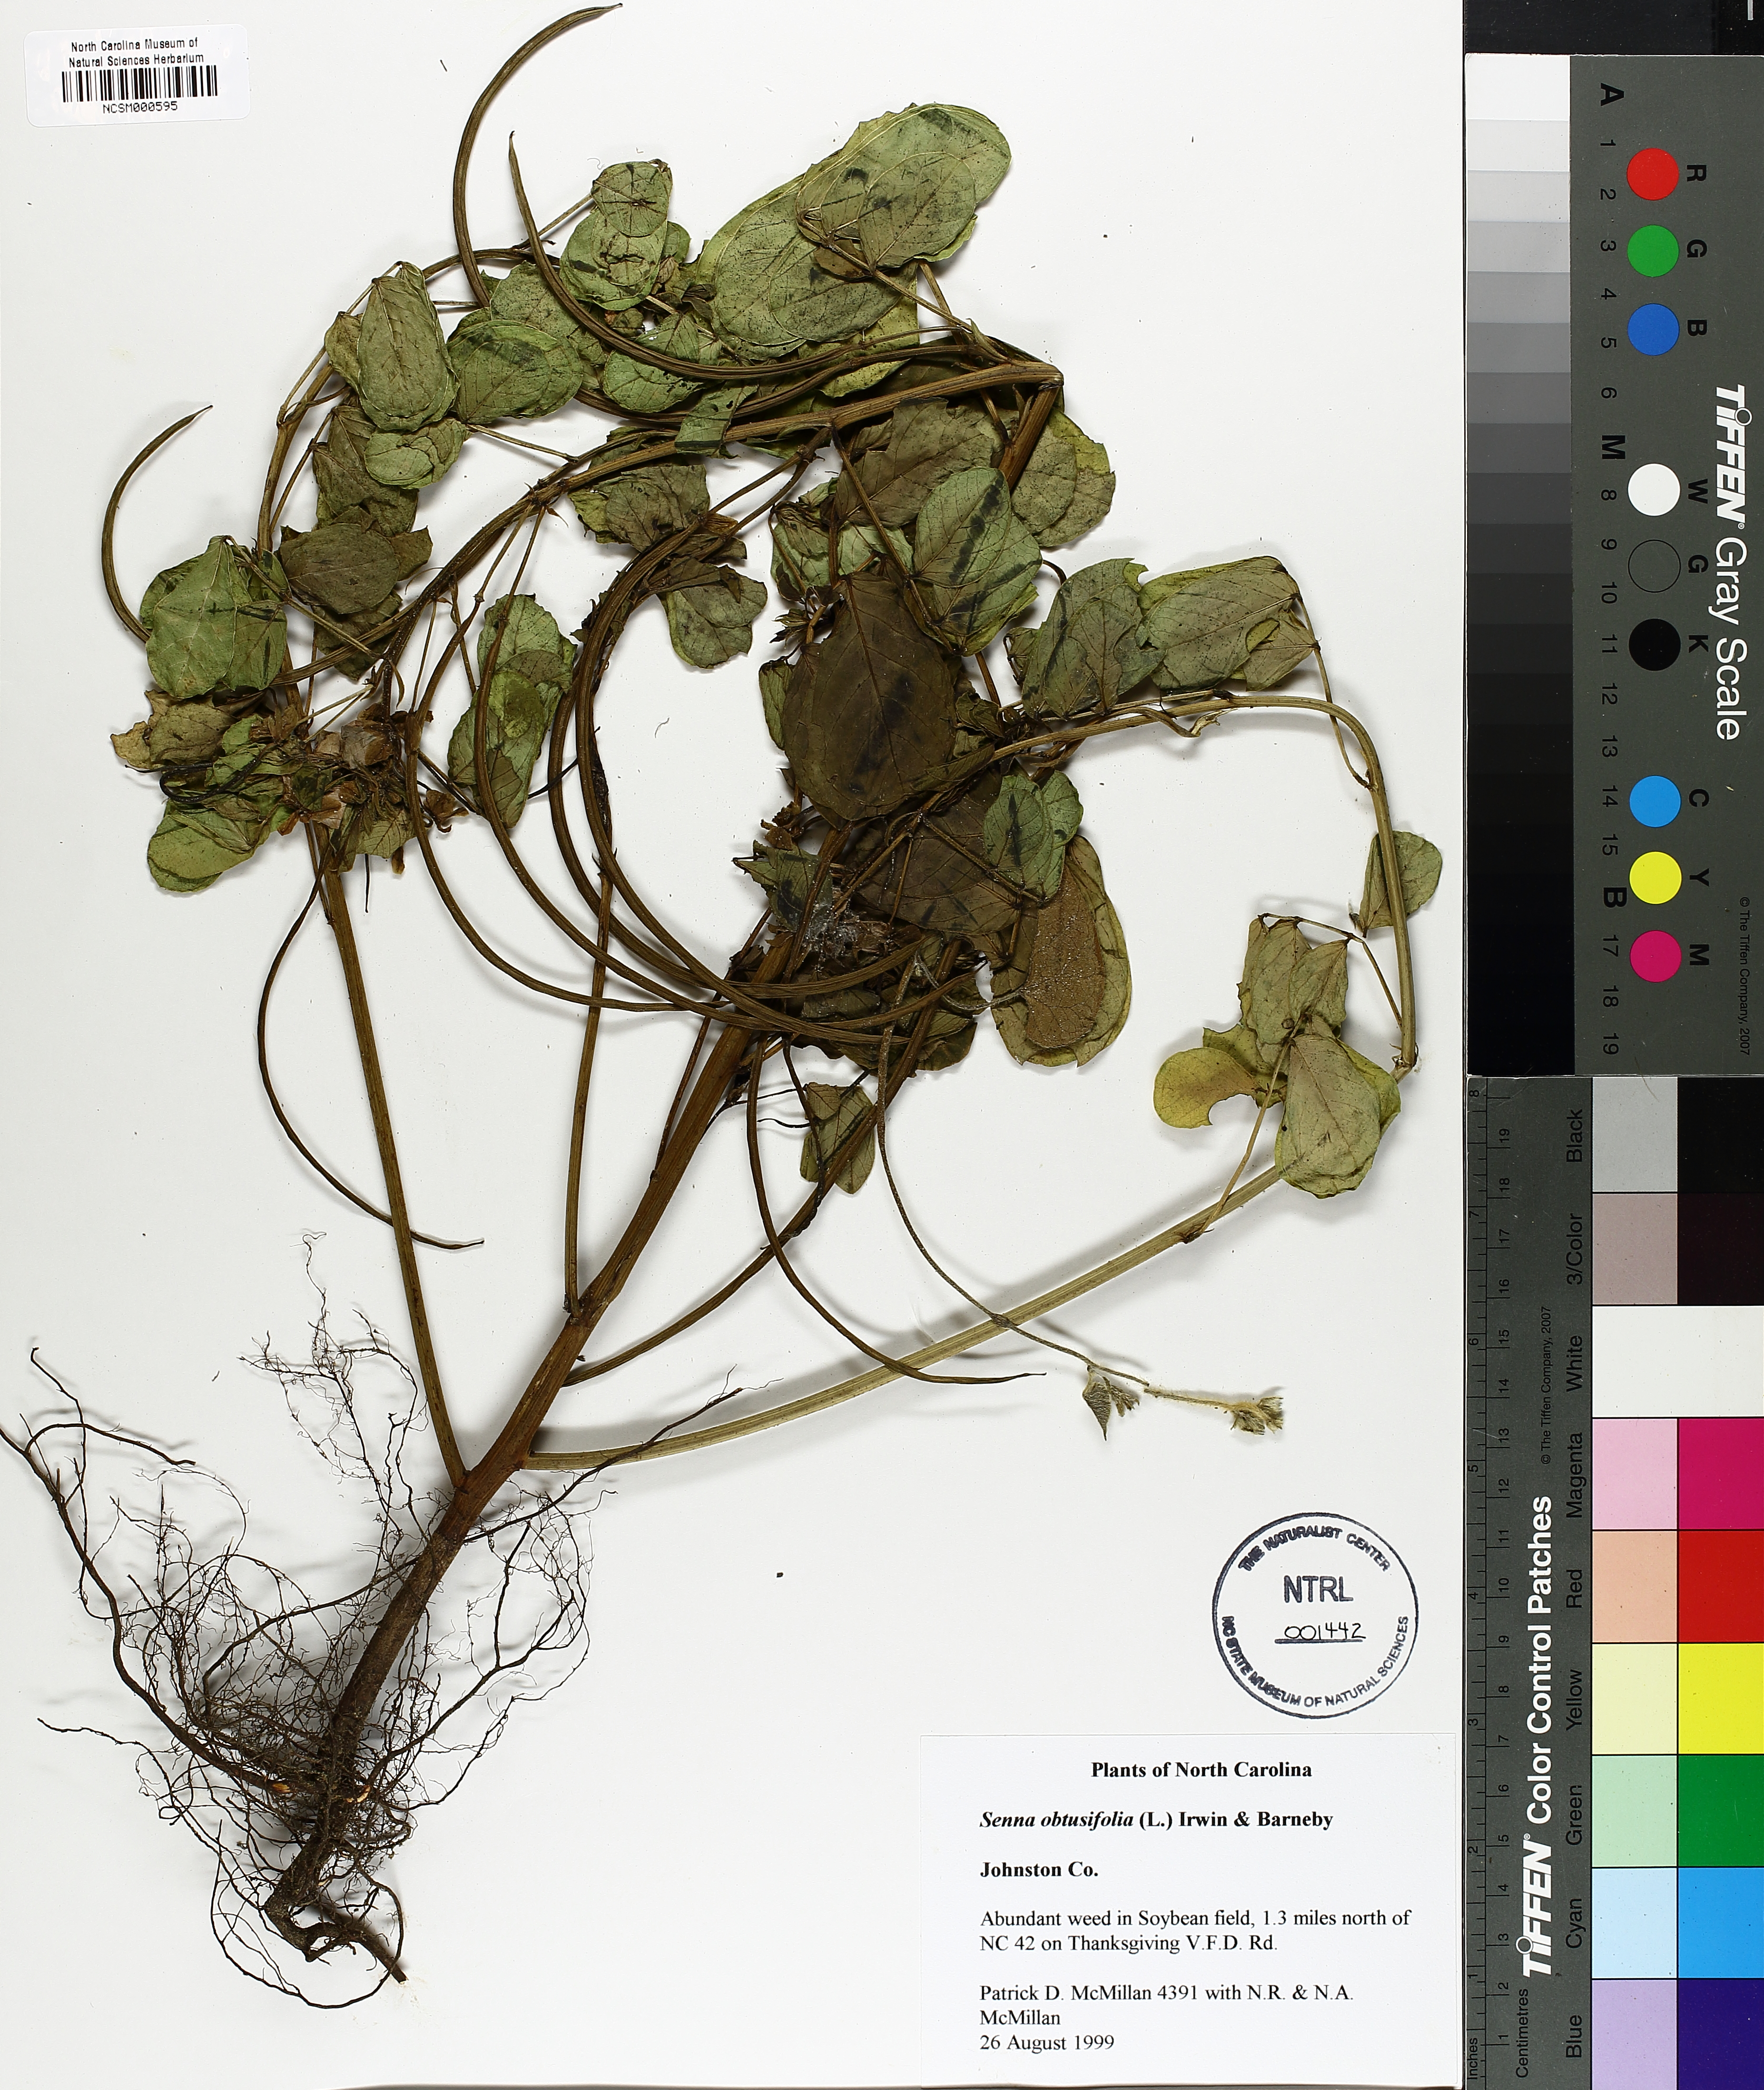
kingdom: Plantae
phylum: Tracheophyta
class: Magnoliopsida
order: Fabales
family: Fabaceae
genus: Senna
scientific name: Senna obtusifolia
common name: Java-bean
